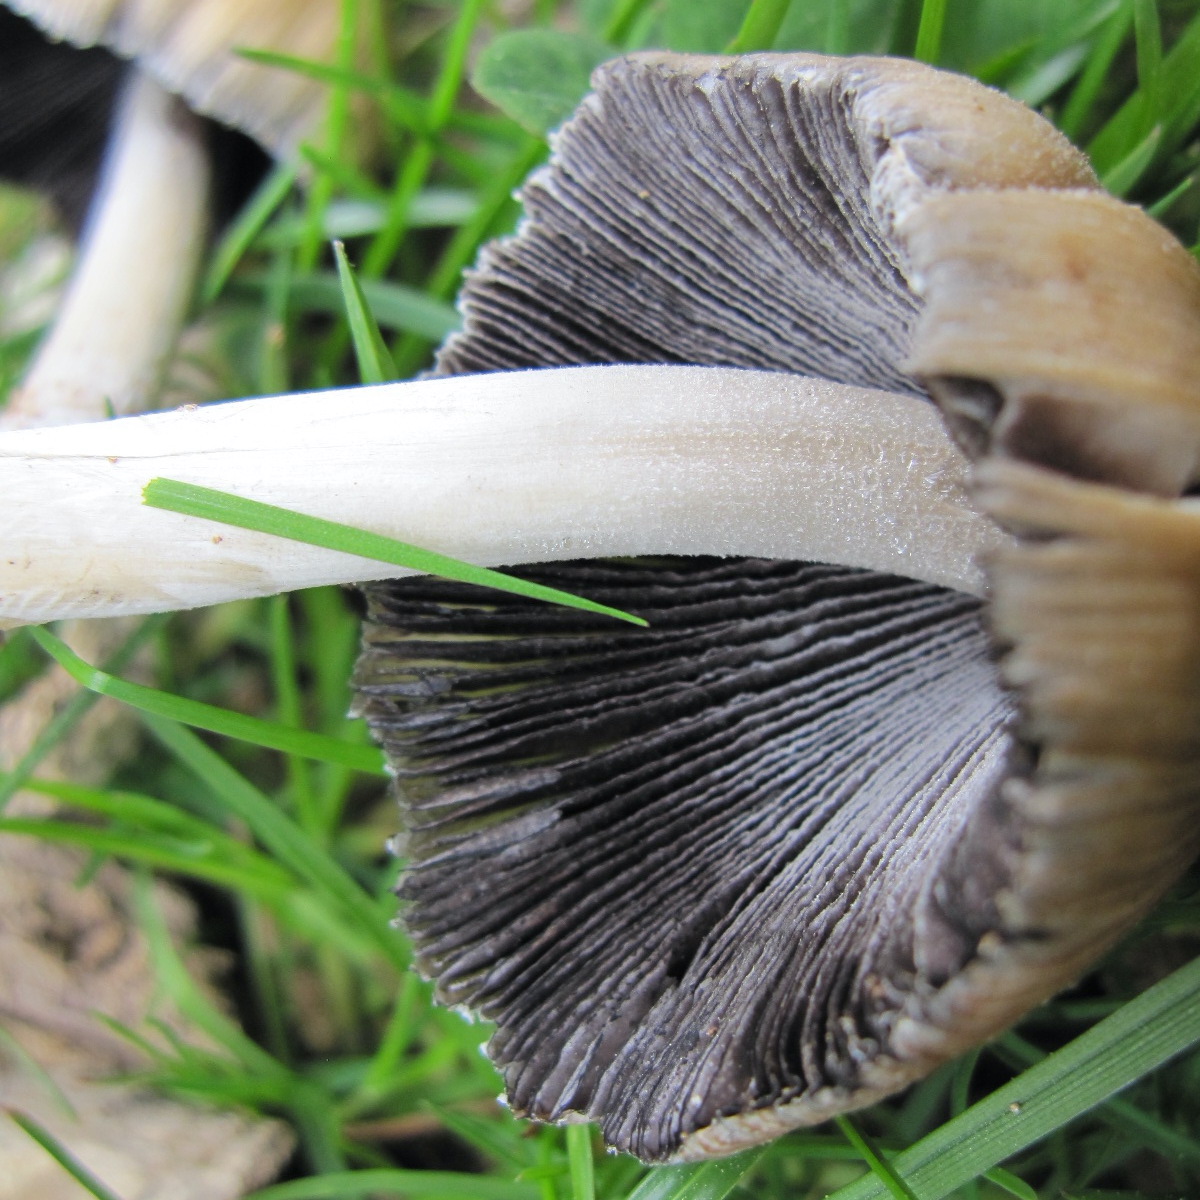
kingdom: Fungi
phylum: Basidiomycota
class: Agaricomycetes
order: Agaricales
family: Psathyrellaceae
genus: Coprinellus
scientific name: Coprinellus micaceus
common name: glimmer-blækhat
